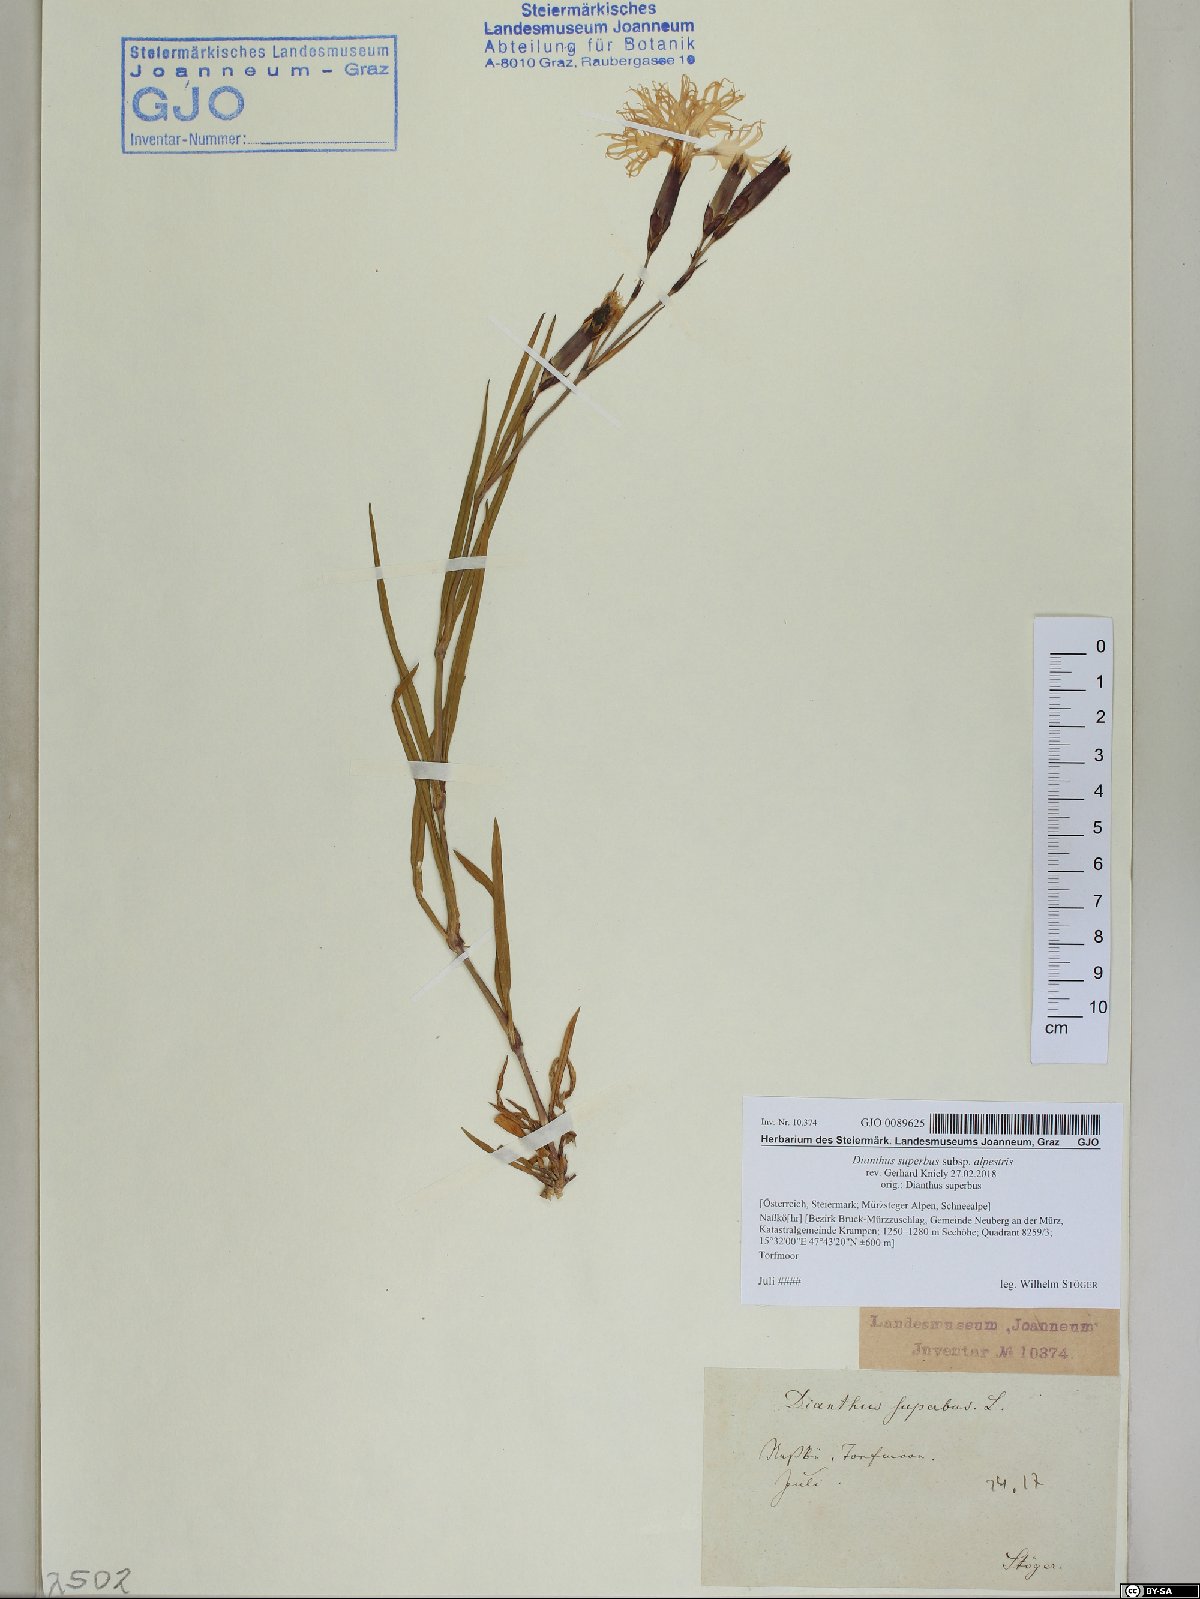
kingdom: Plantae
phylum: Tracheophyta
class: Magnoliopsida
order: Caryophyllales
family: Caryophyllaceae
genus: Dianthus
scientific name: Dianthus superbus
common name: Fringed pink
